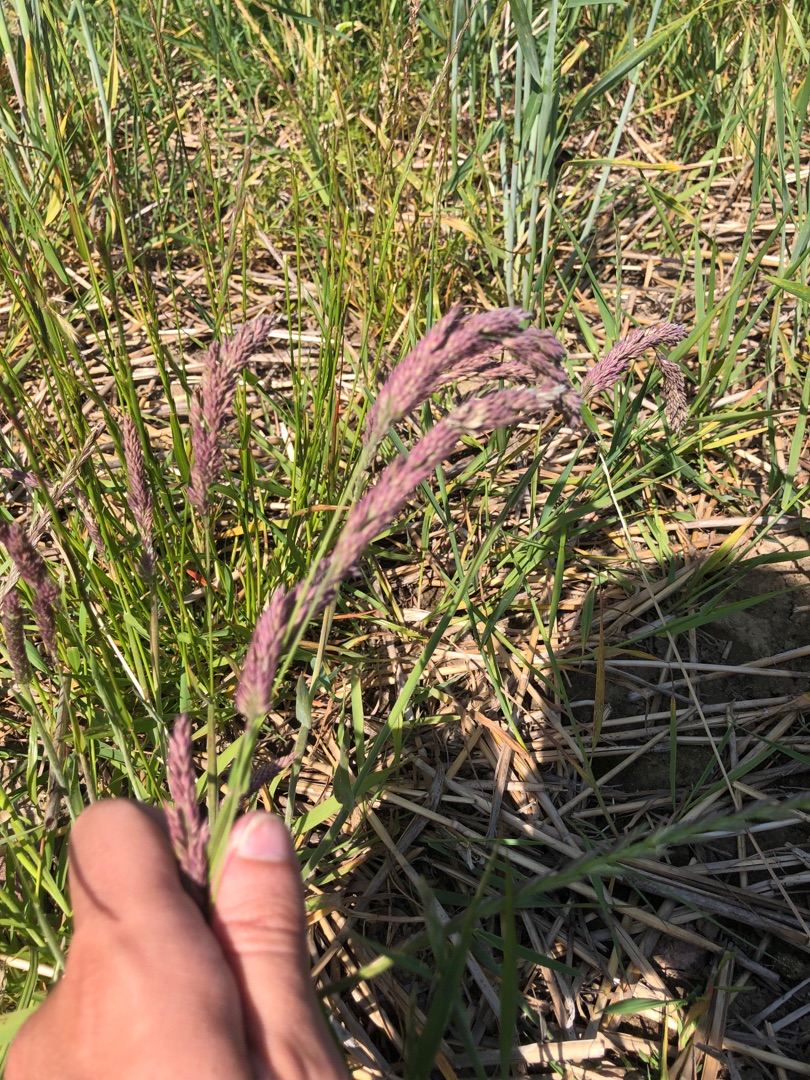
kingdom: Plantae
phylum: Tracheophyta
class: Liliopsida
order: Poales
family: Poaceae
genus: Holcus
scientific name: Holcus lanatus
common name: Fløjlsgræs
